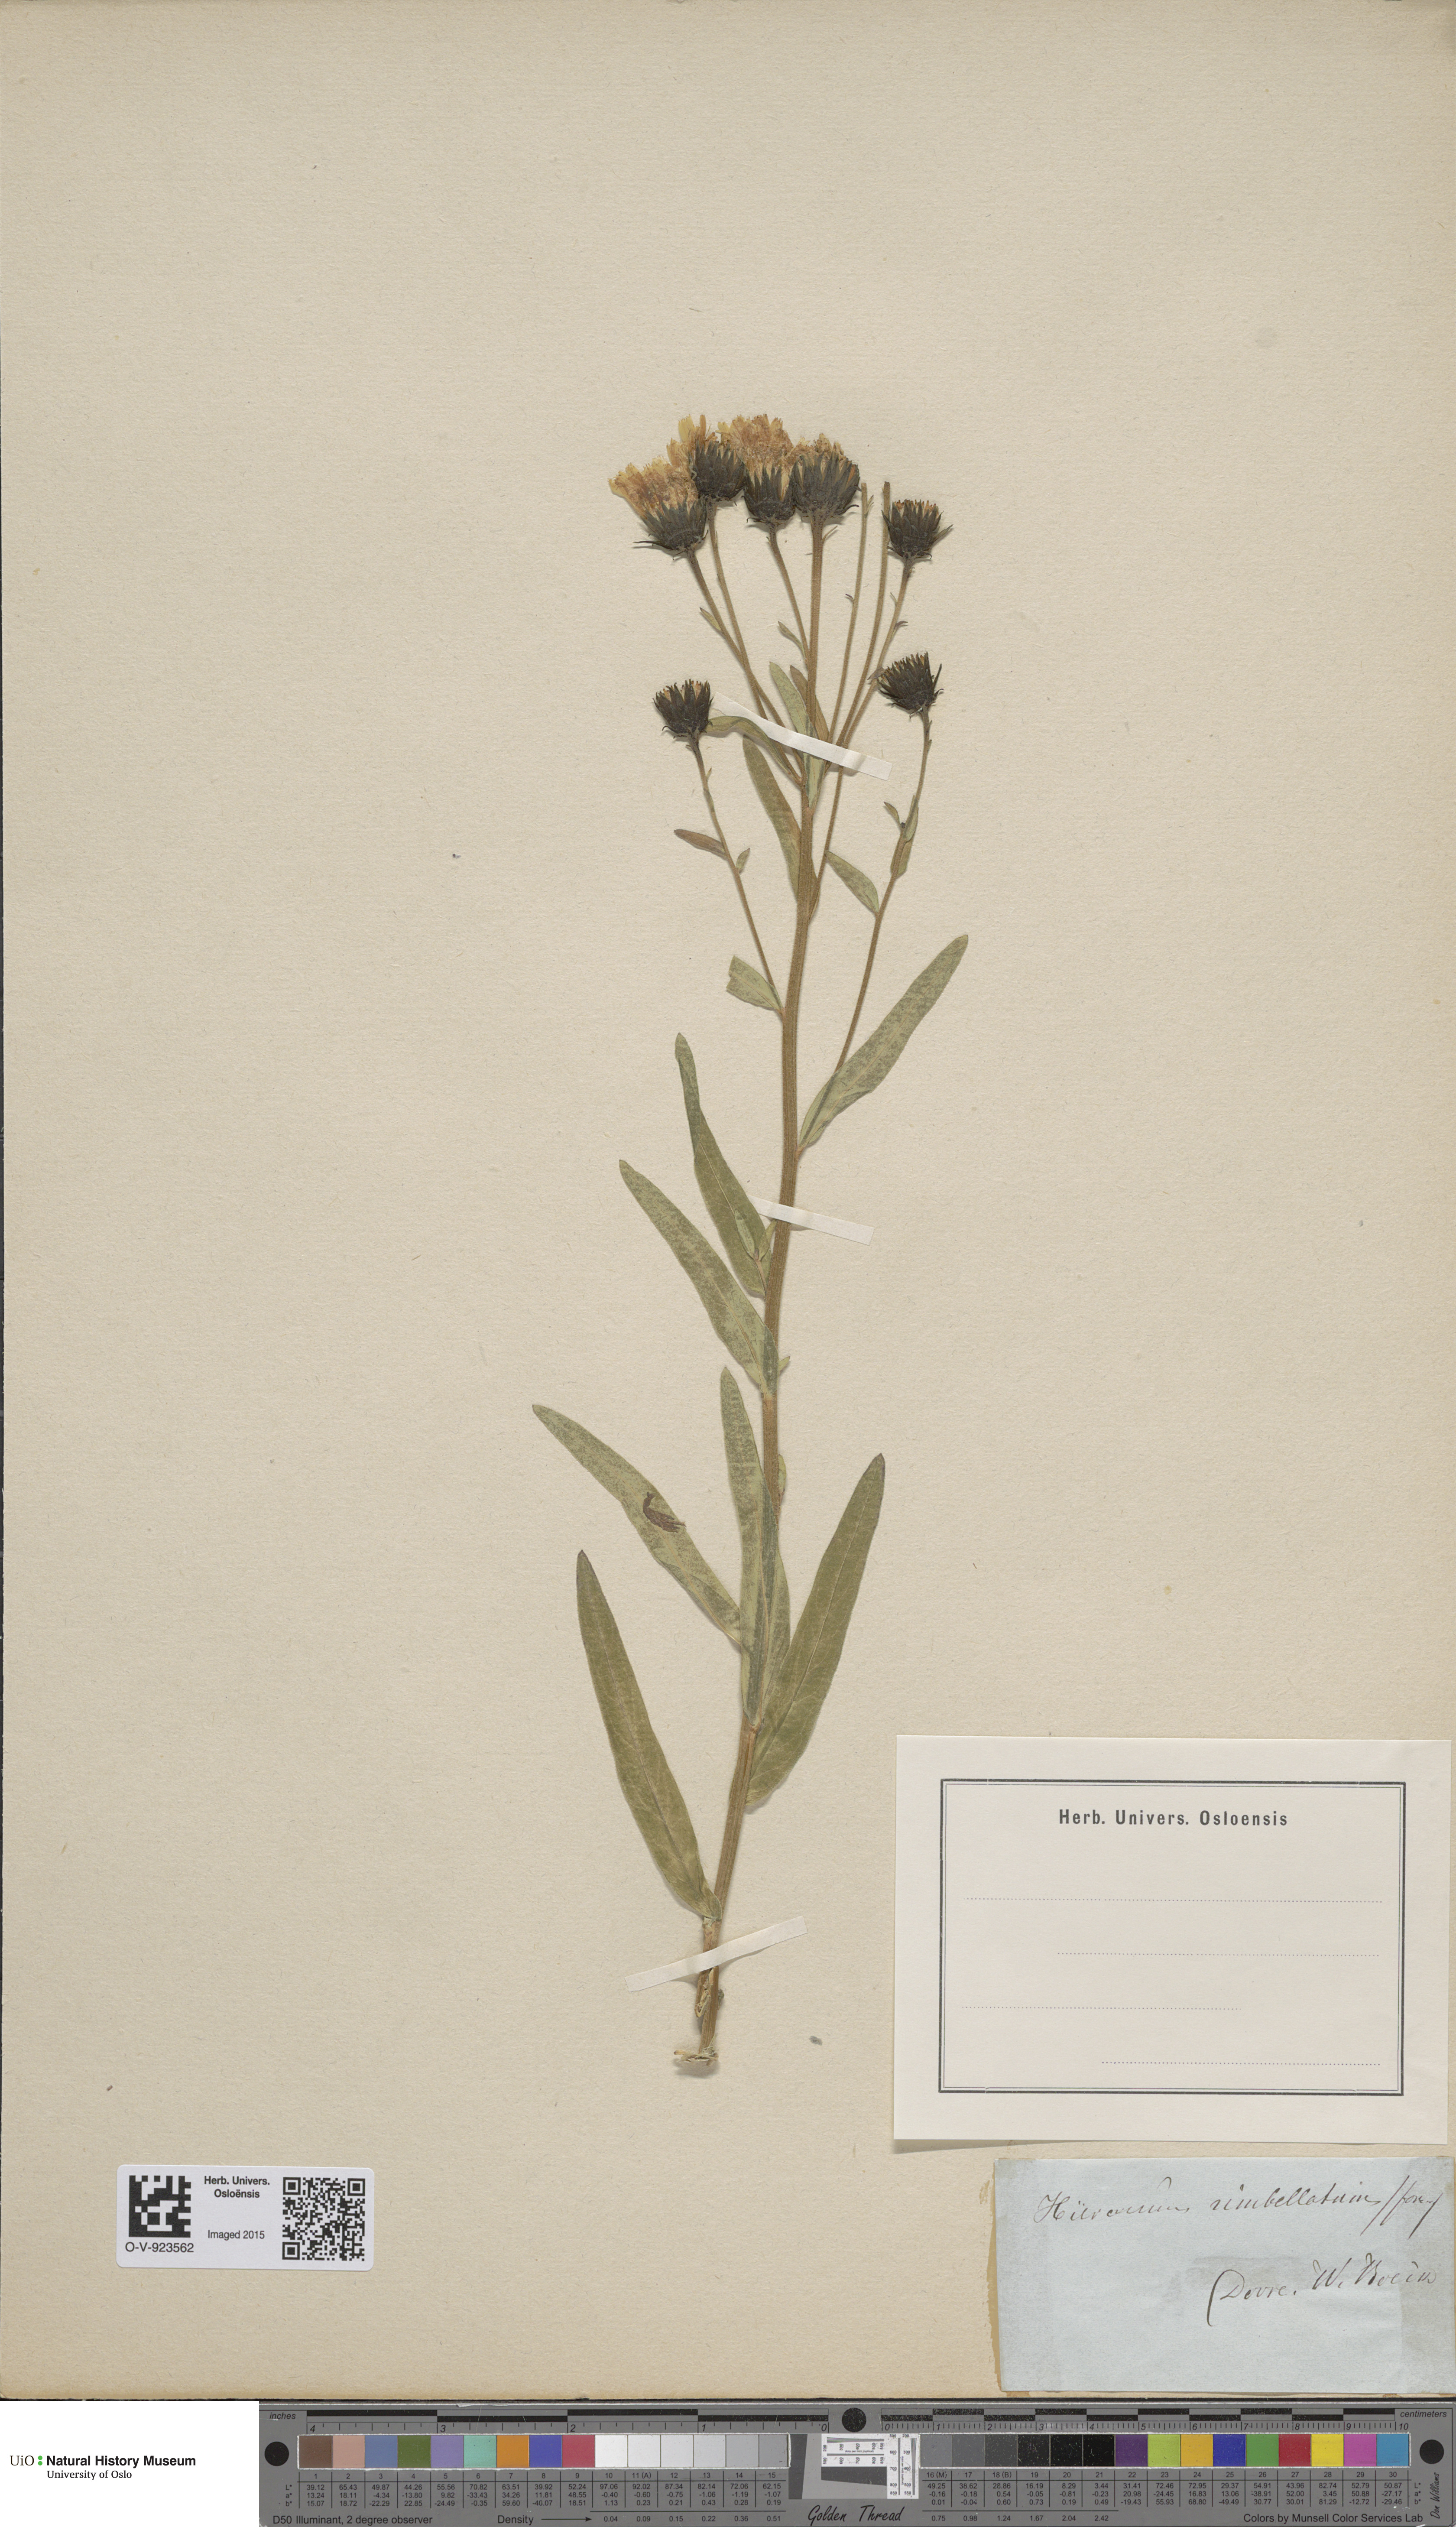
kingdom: Plantae
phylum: Tracheophyta
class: Magnoliopsida
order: Asterales
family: Asteraceae
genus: Hieracium
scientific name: Hieracium umbellatum
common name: Northern hawkweed
